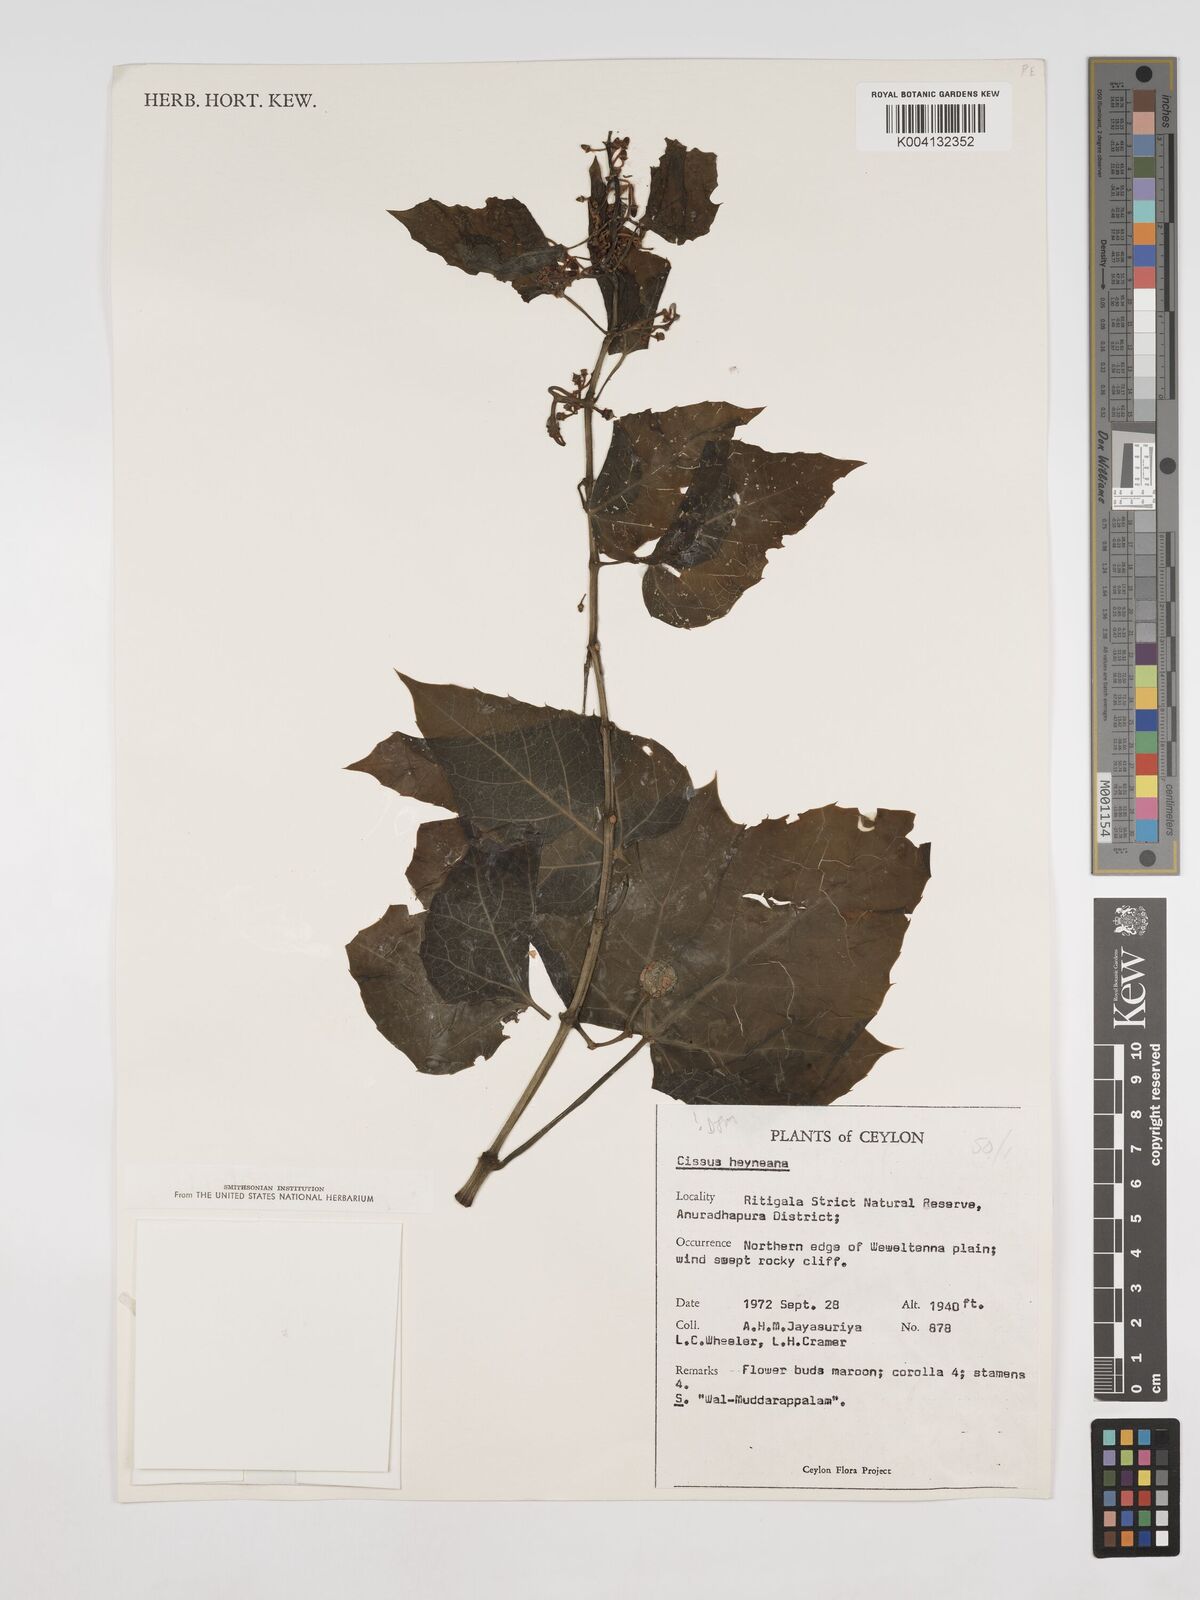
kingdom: Plantae
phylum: Tracheophyta
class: Magnoliopsida
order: Vitales
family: Vitaceae
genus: Cissus
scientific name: Cissus heyneana
